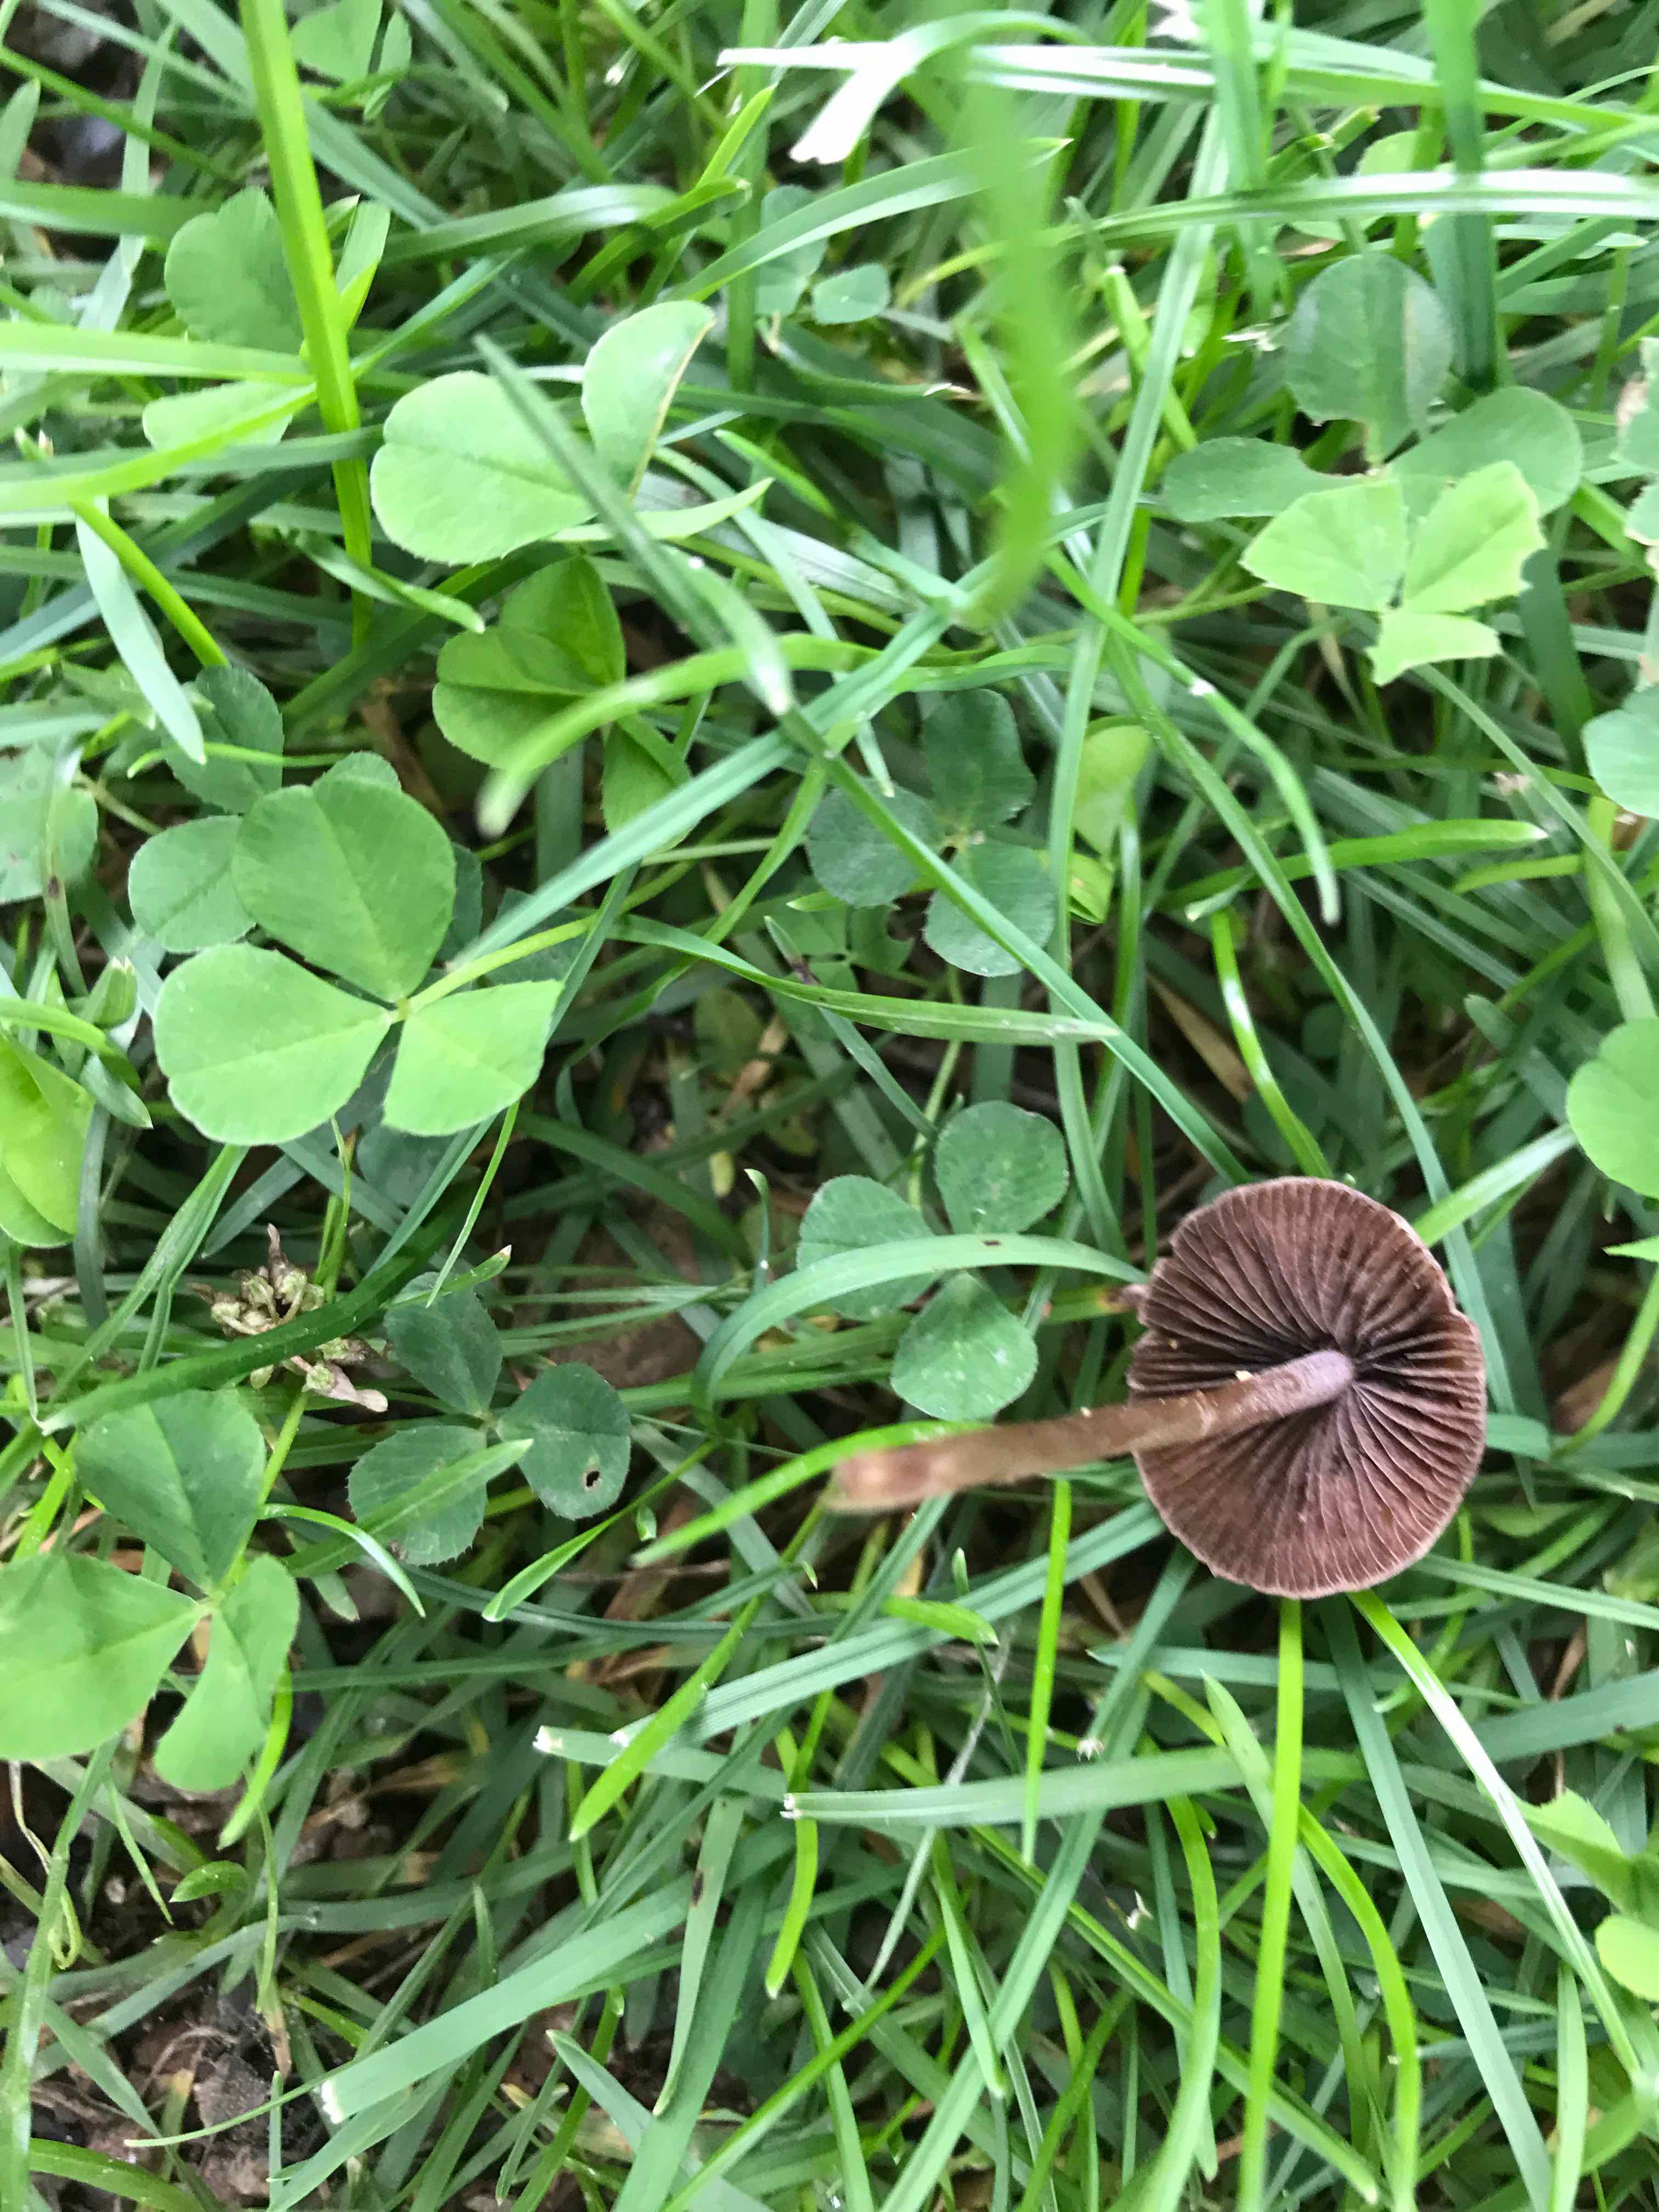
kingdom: Fungi
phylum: Basidiomycota
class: Agaricomycetes
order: Agaricales
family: Bolbitiaceae
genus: Panaeolina
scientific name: Panaeolina foenisecii
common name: høslætsvamp
